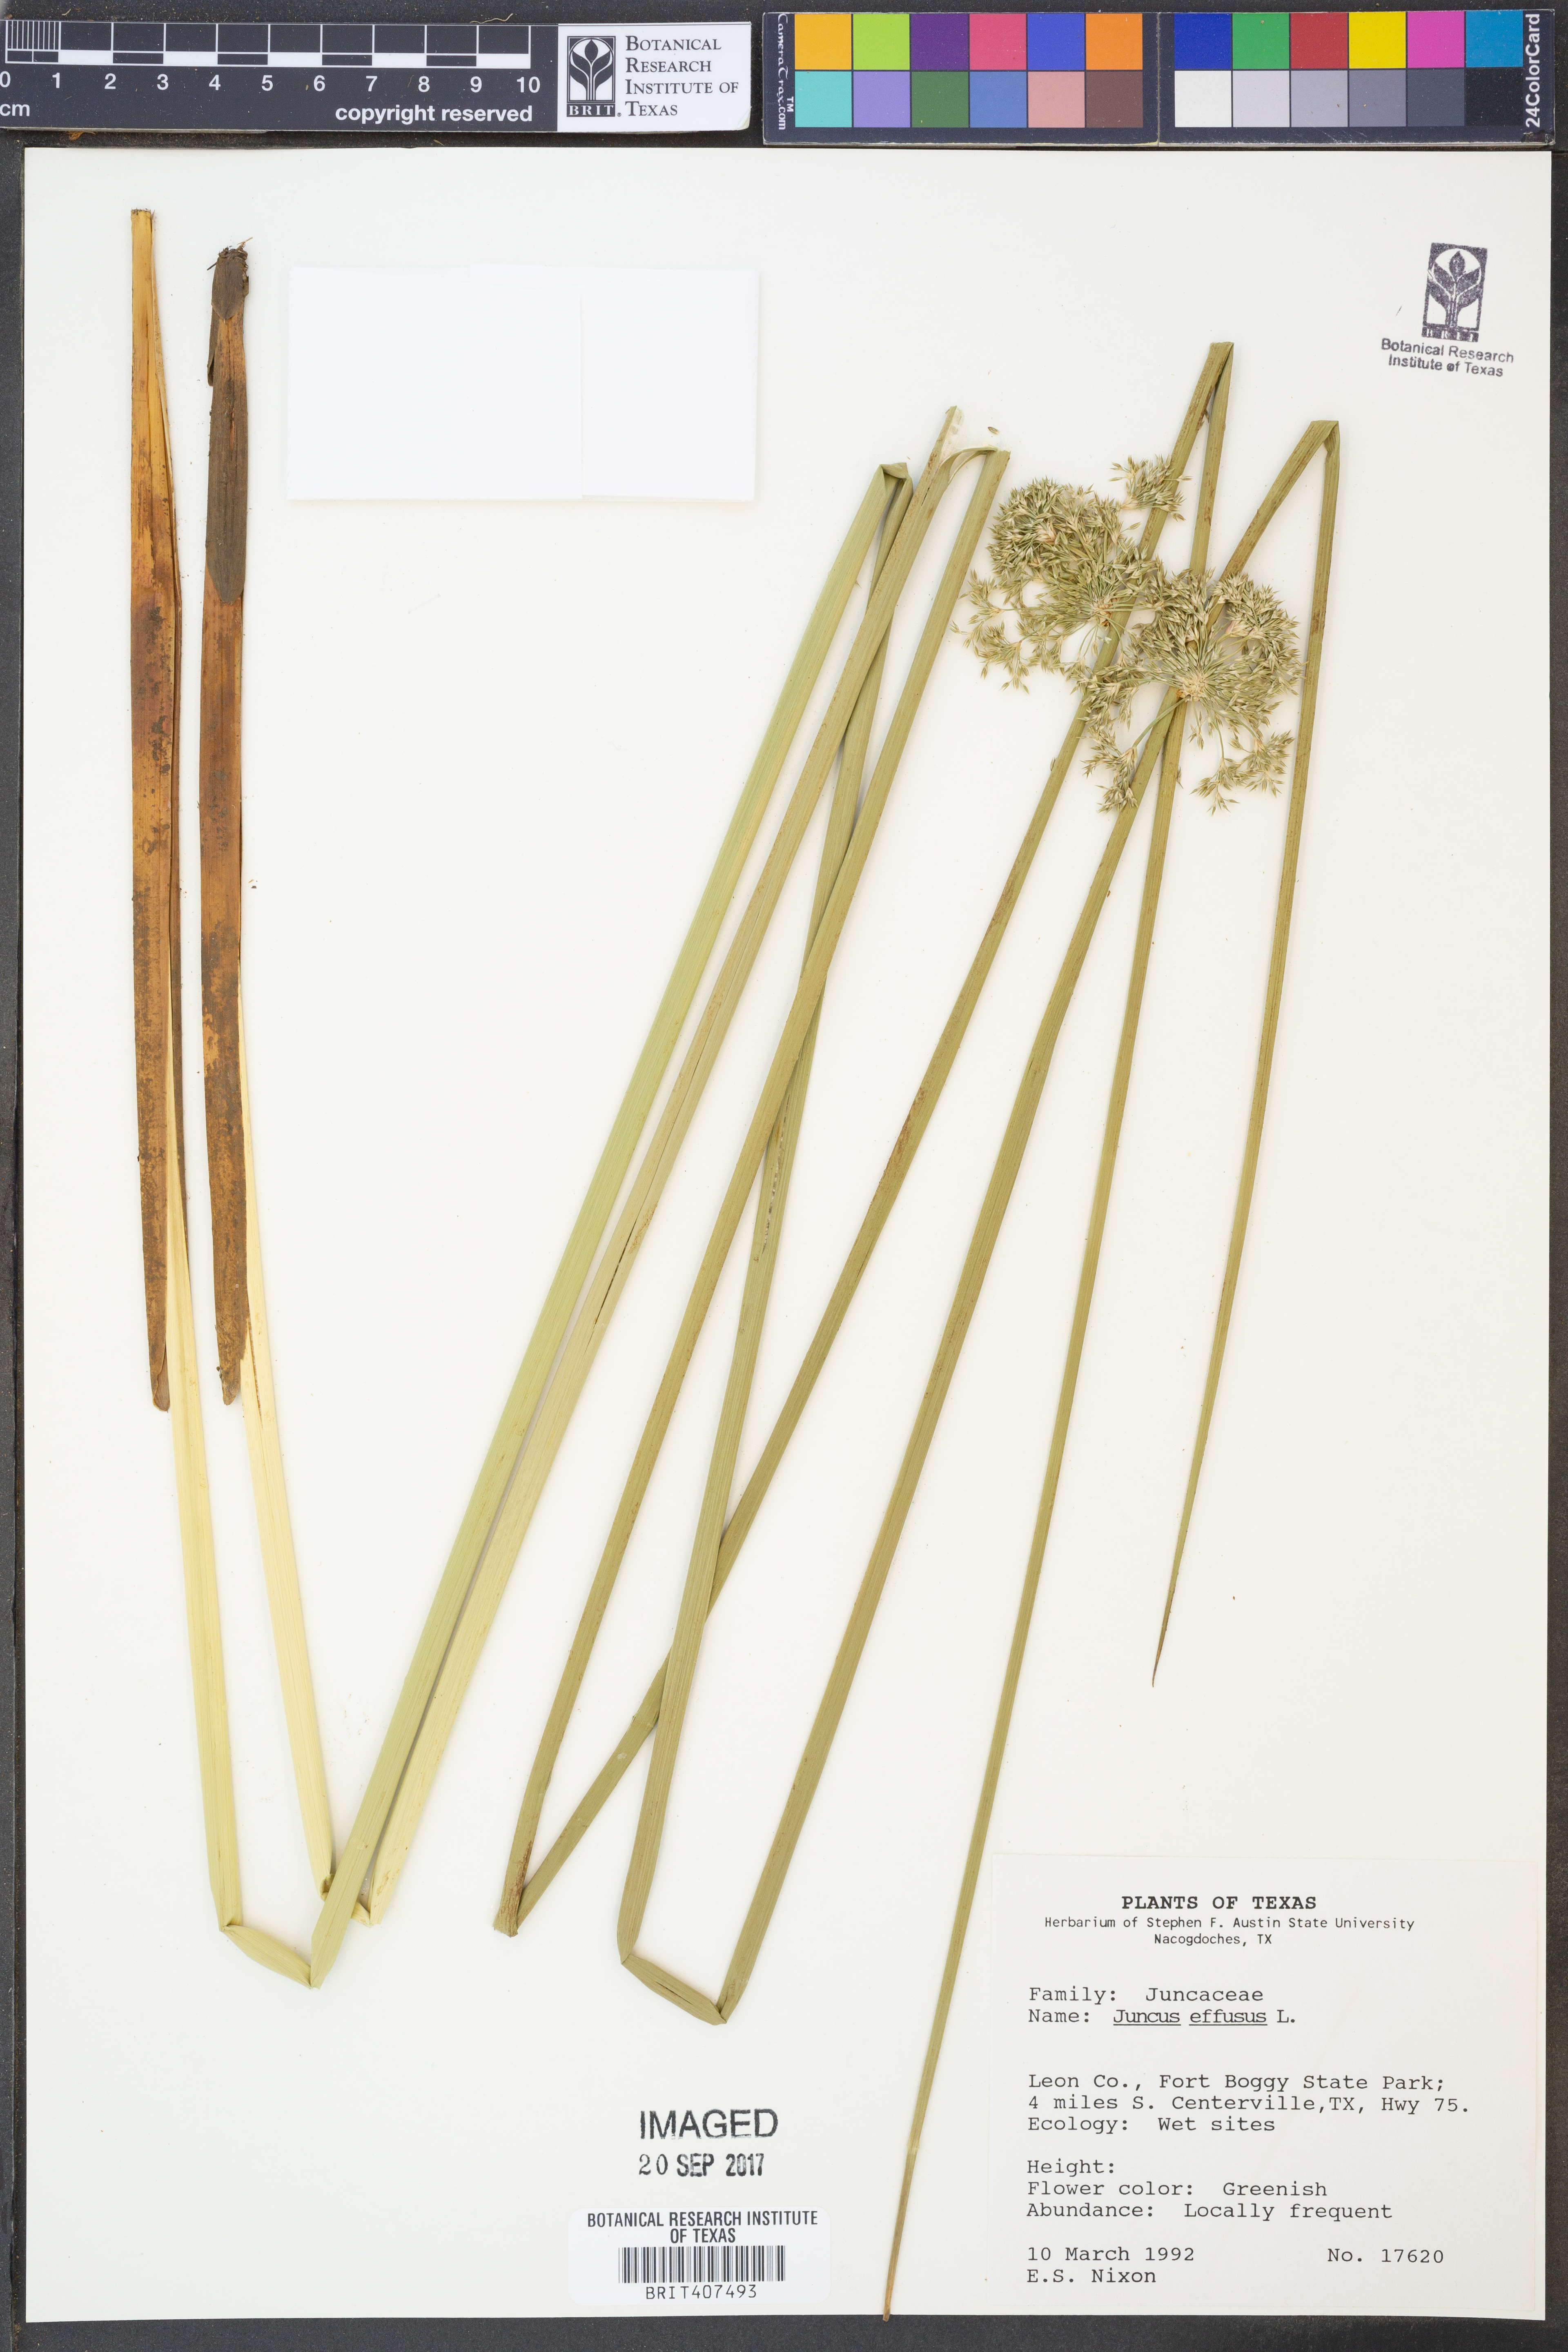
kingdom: Plantae
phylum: Tracheophyta
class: Liliopsida
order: Poales
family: Juncaceae
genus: Juncus
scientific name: Juncus effusus
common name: Soft rush
